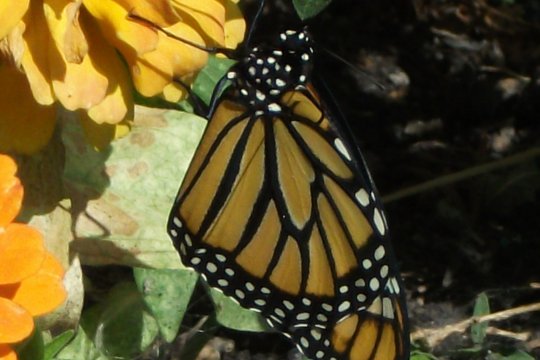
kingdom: Animalia
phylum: Arthropoda
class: Insecta
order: Lepidoptera
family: Nymphalidae
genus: Danaus
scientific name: Danaus plexippus
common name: Monarch
